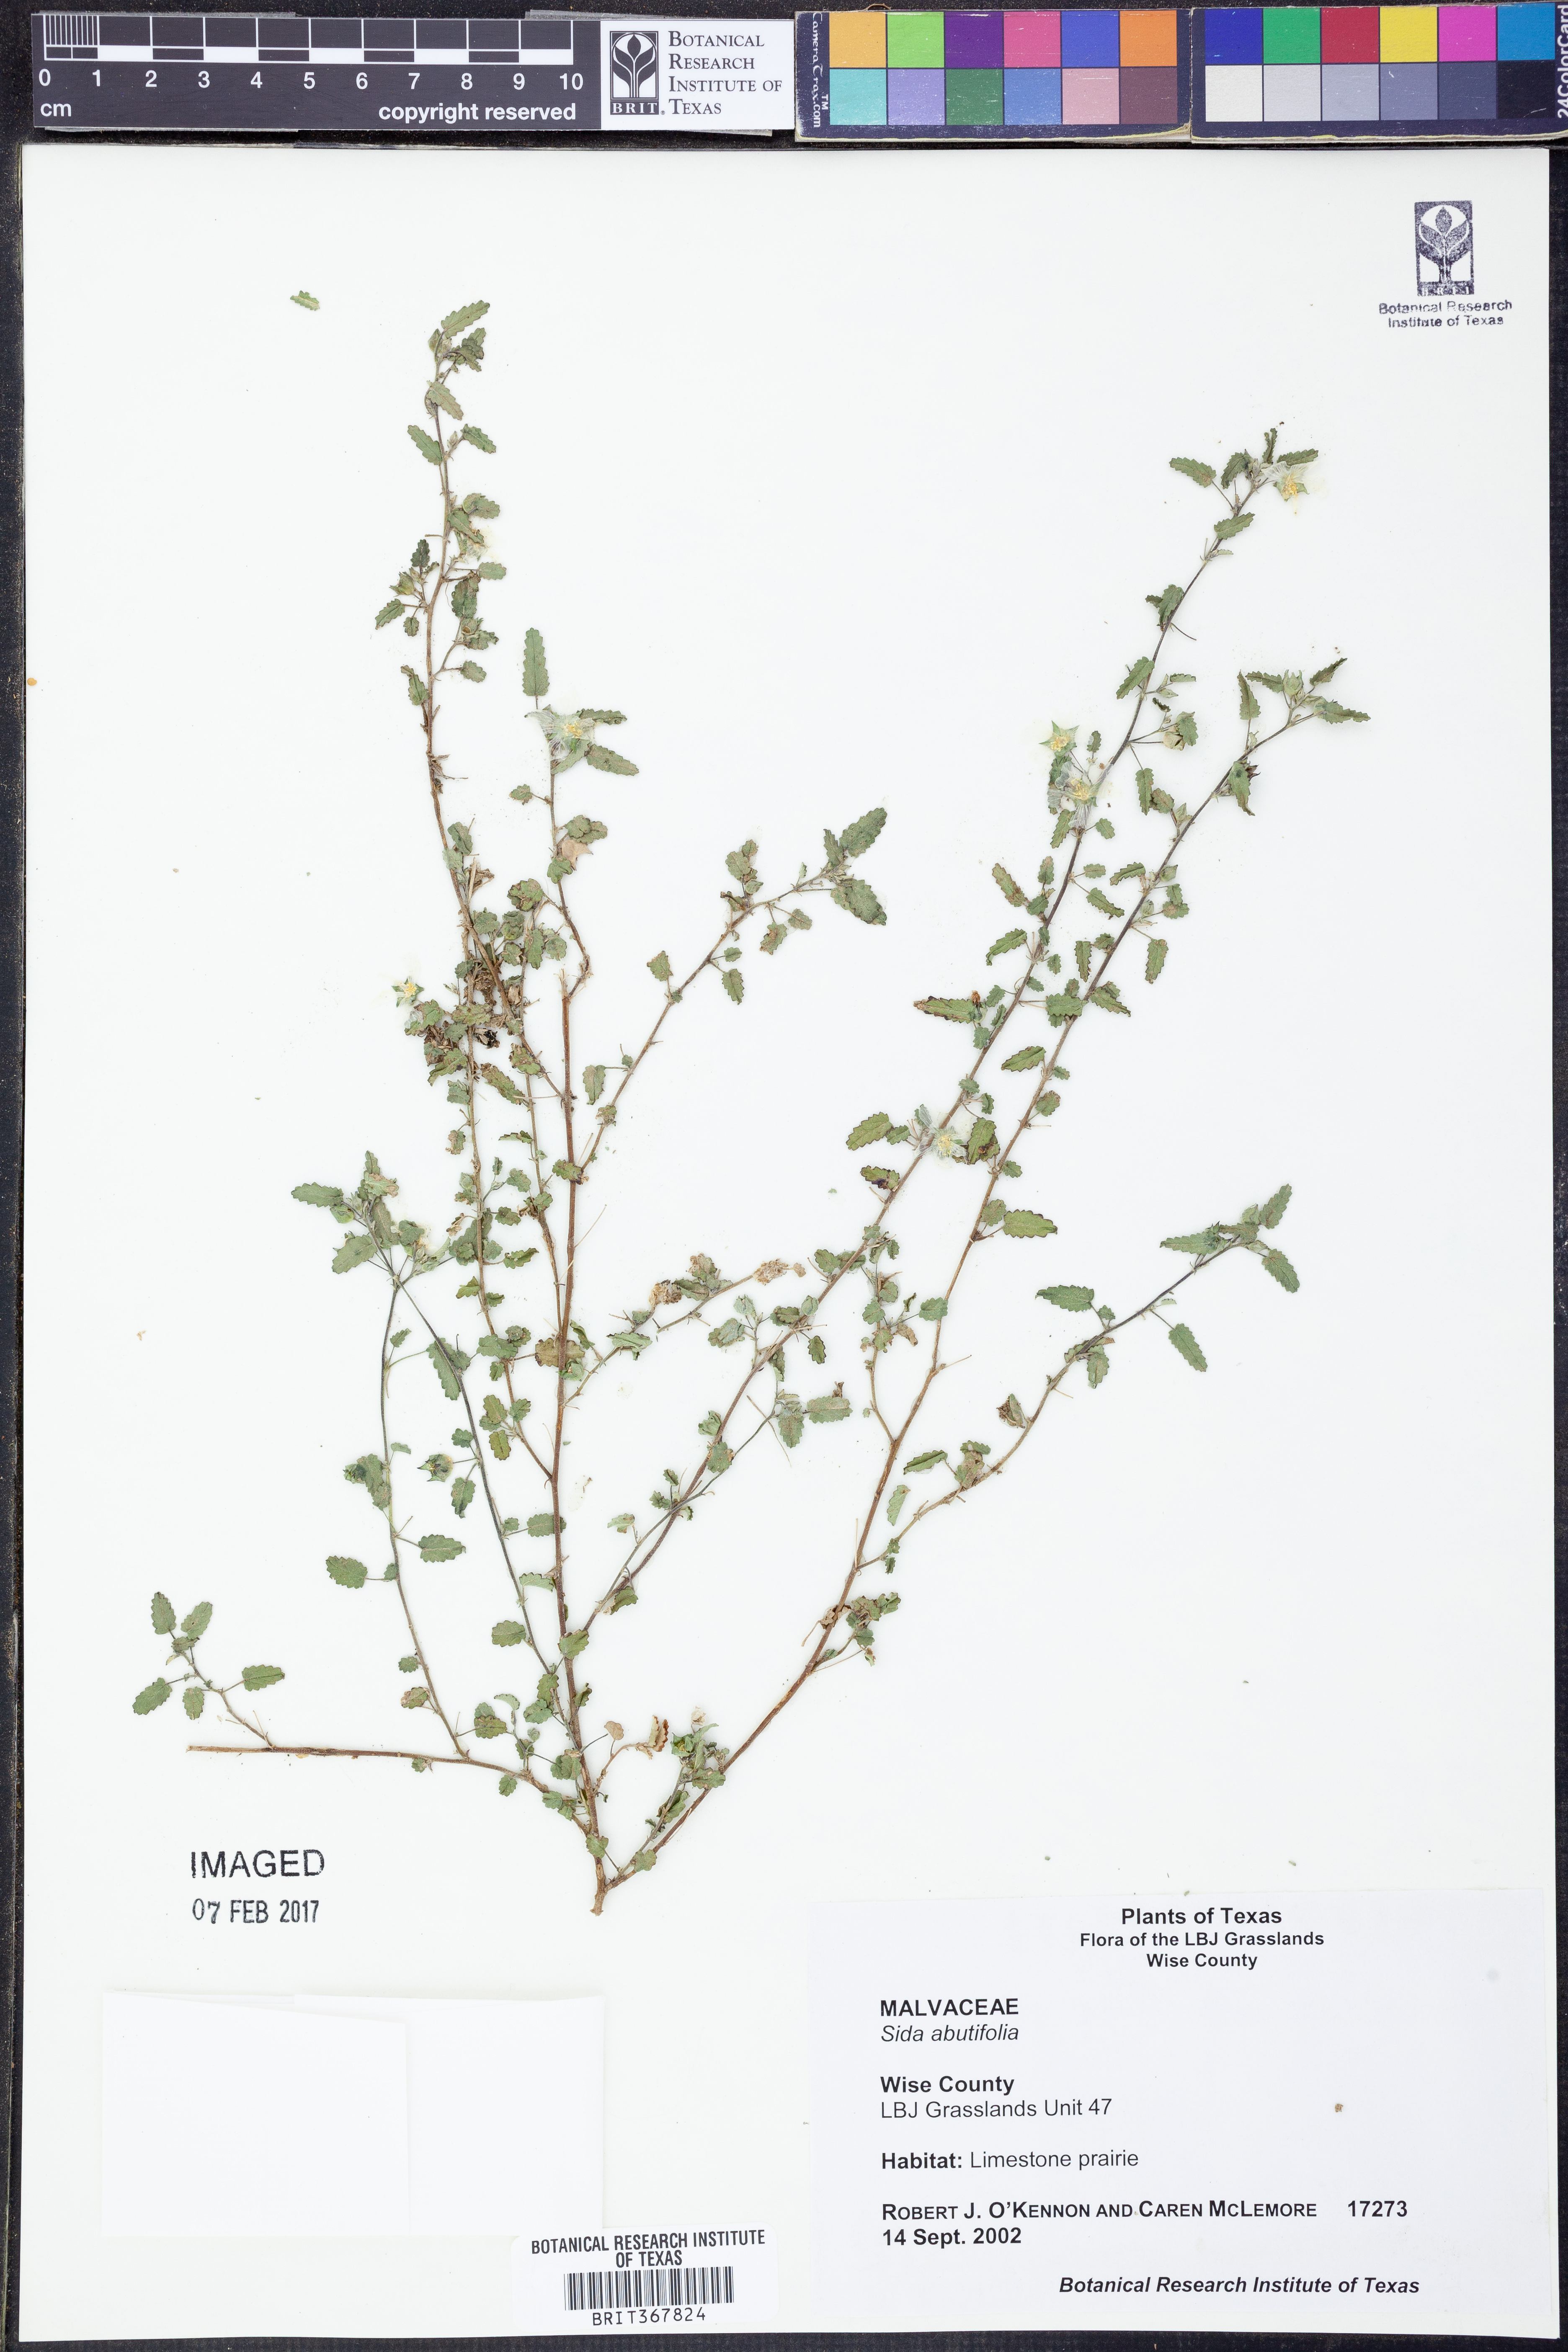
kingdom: Plantae
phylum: Tracheophyta
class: Magnoliopsida
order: Malvales
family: Malvaceae
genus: Sida
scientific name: Sida abutifolia
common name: Spreading fantails
